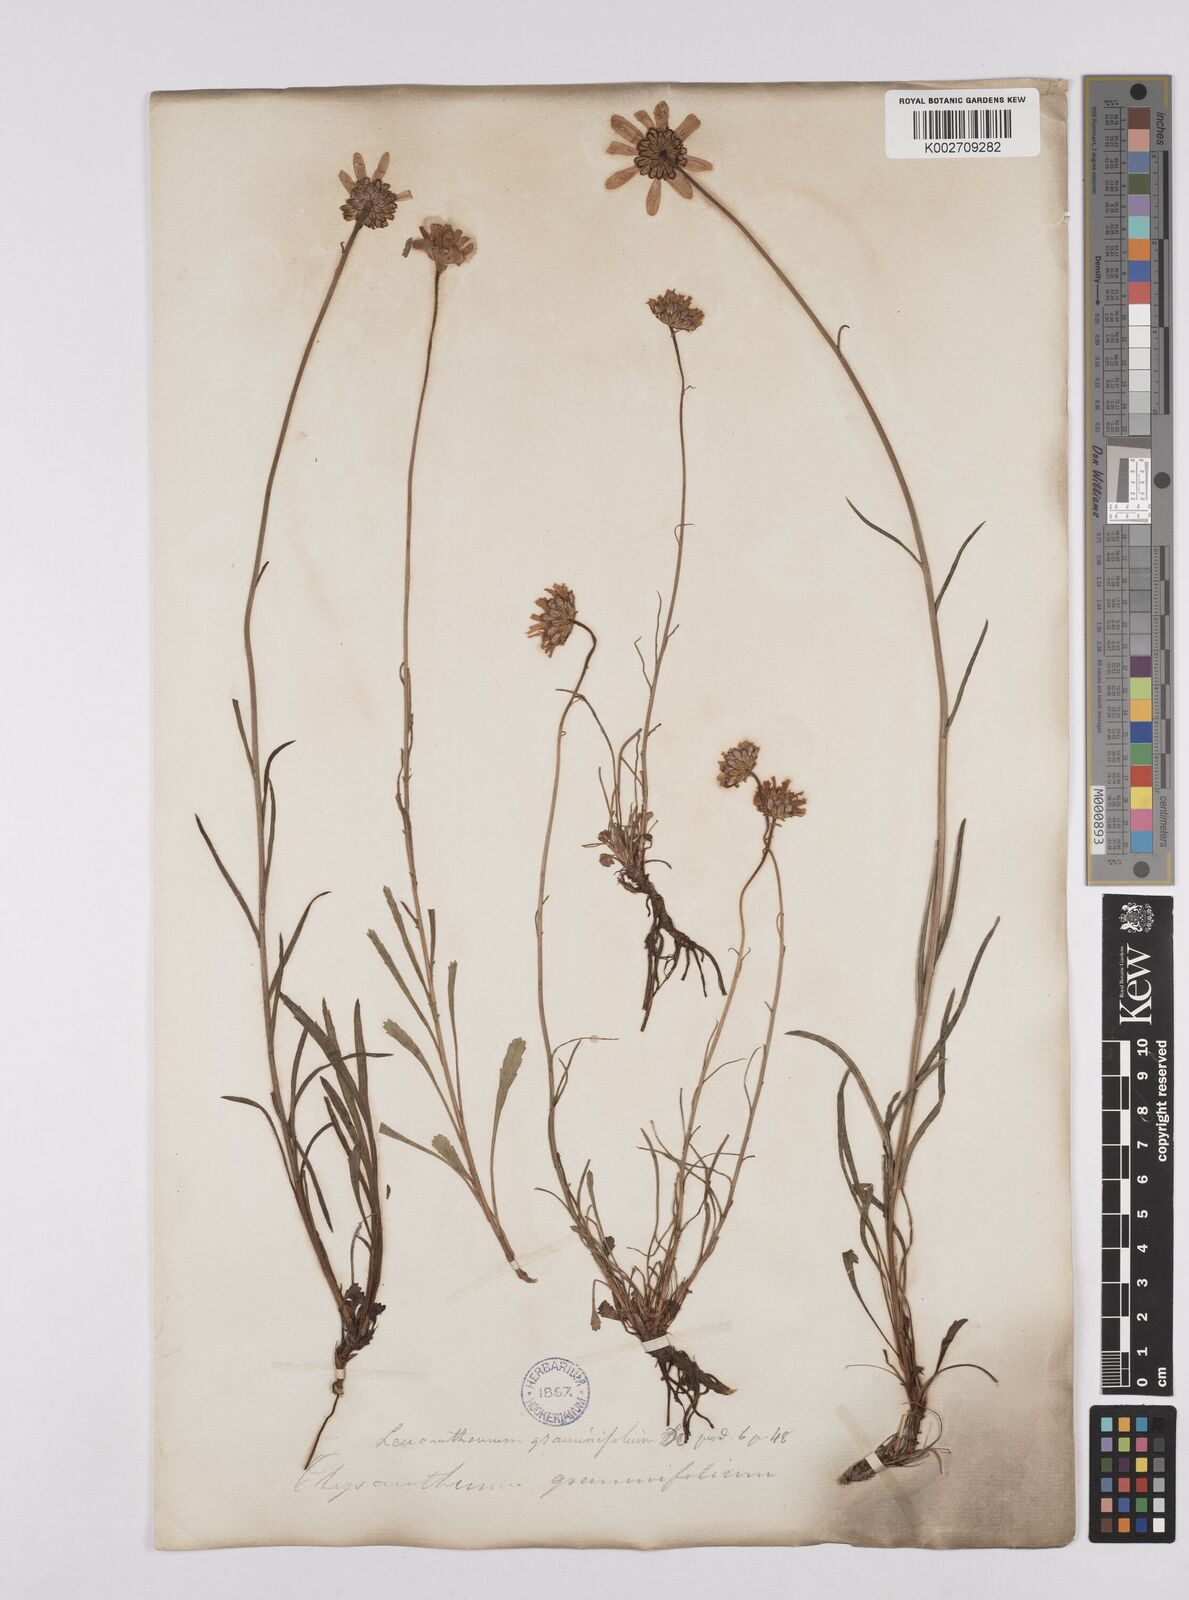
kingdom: Plantae
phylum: Tracheophyta
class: Magnoliopsida
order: Asterales
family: Asteraceae
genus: Leucanthemum
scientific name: Leucanthemum chloroticum
